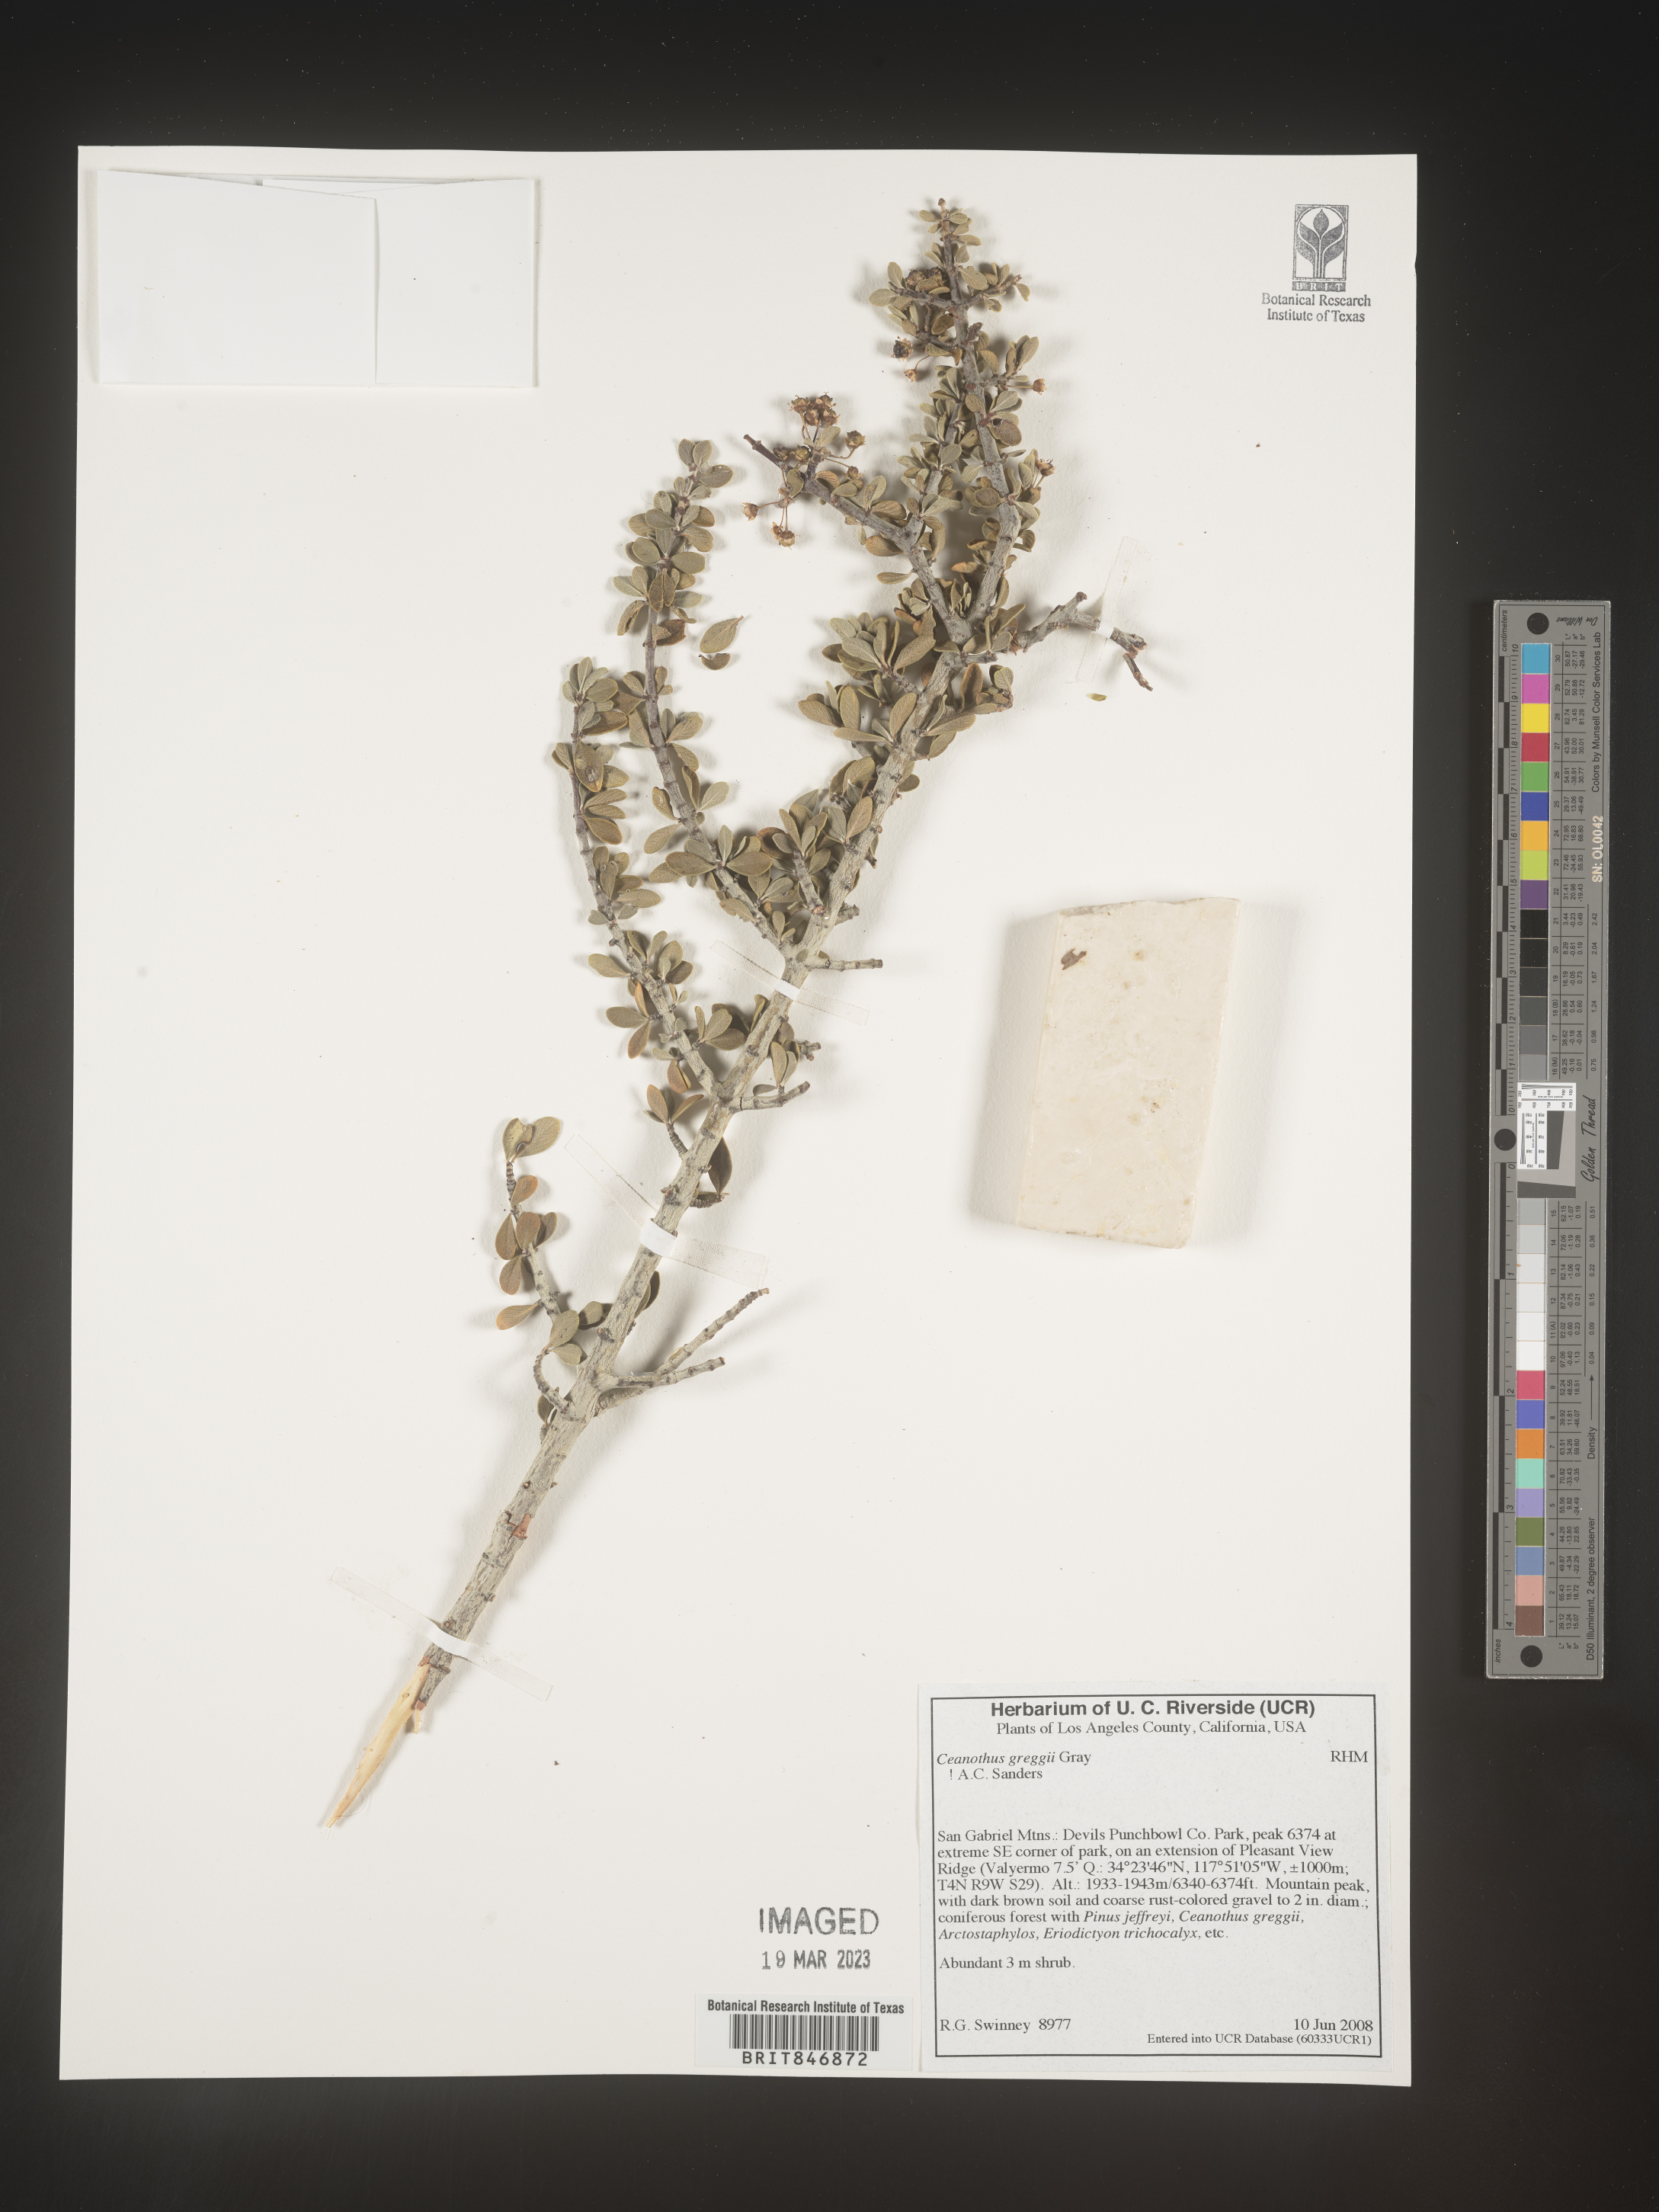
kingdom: Plantae
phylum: Tracheophyta
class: Magnoliopsida
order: Rosales
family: Rhamnaceae
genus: Ceanothus
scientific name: Ceanothus
